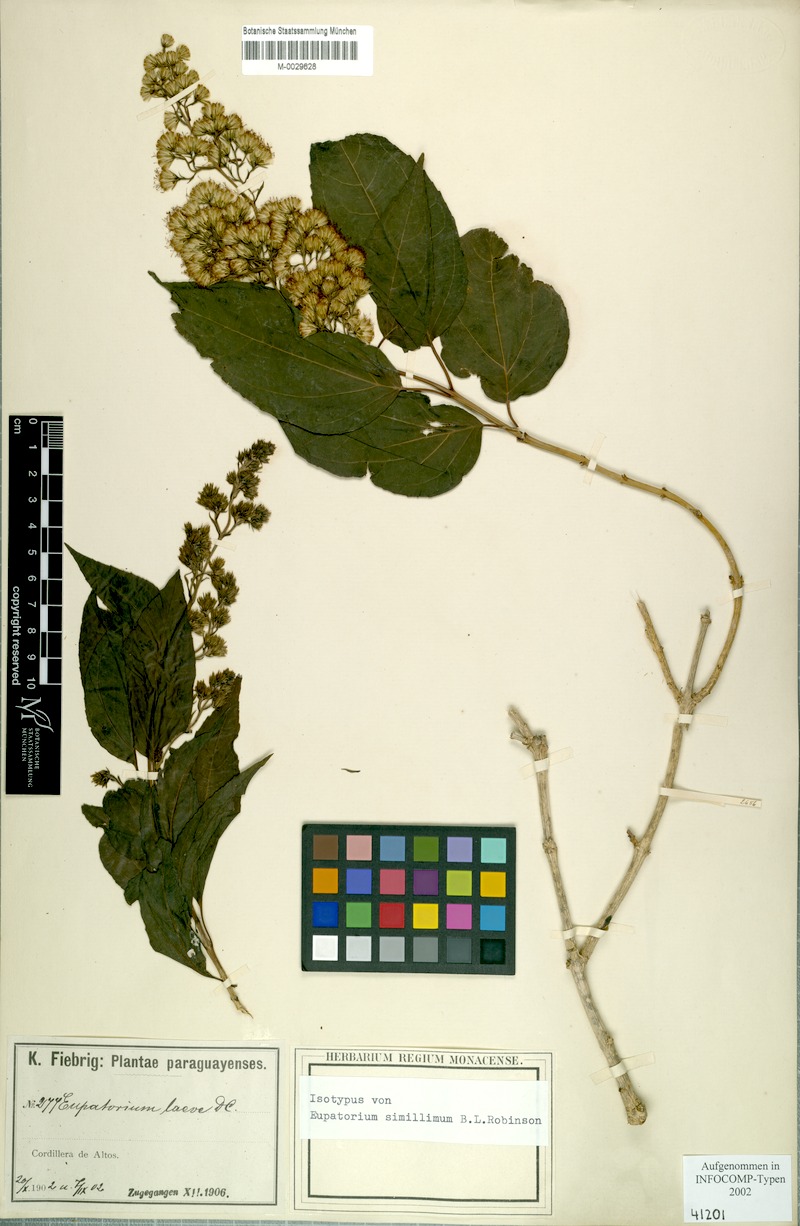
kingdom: Plantae
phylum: Tracheophyta
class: Magnoliopsida
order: Asterales
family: Asteraceae
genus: Koanophyllon
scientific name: Koanophyllon simillimum
